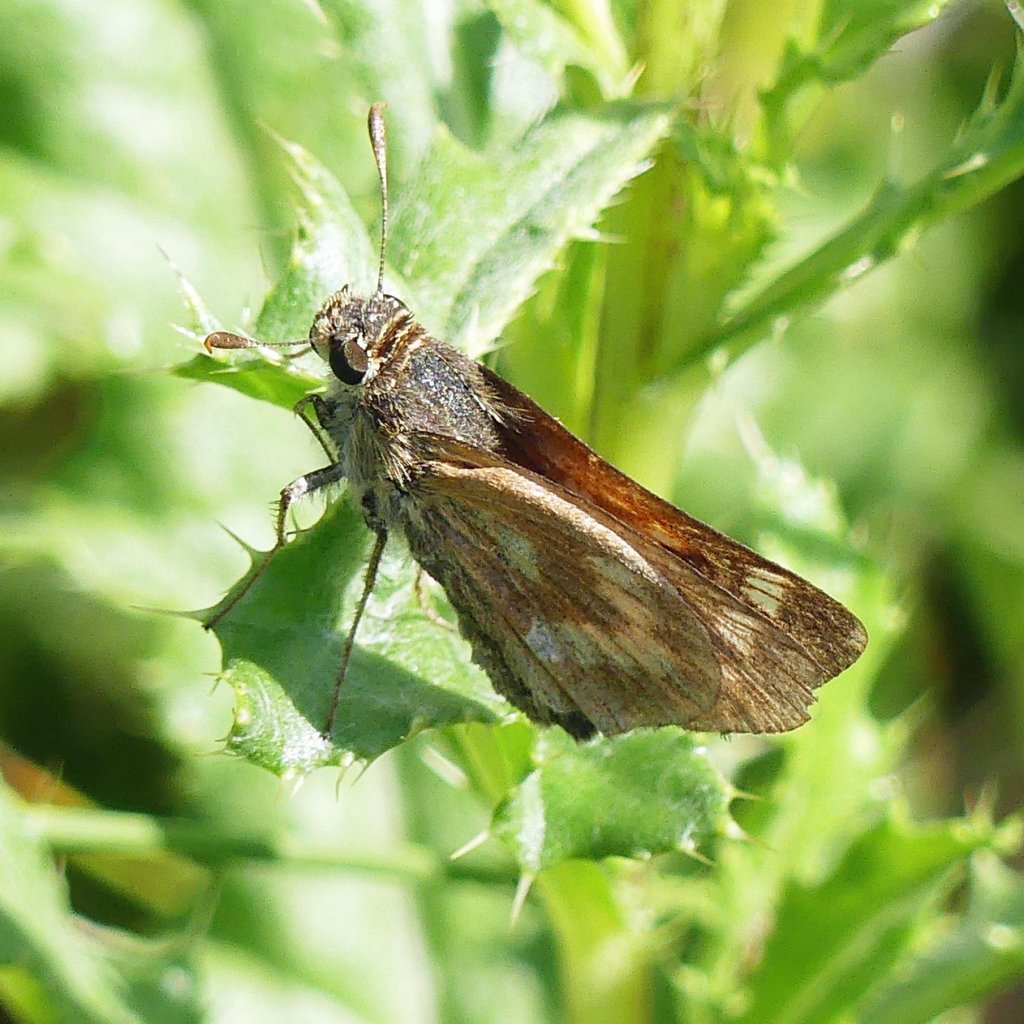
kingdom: Animalia
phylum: Arthropoda
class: Insecta
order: Lepidoptera
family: Hesperiidae
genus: Polites
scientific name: Polites
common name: Long Dash Skipper
